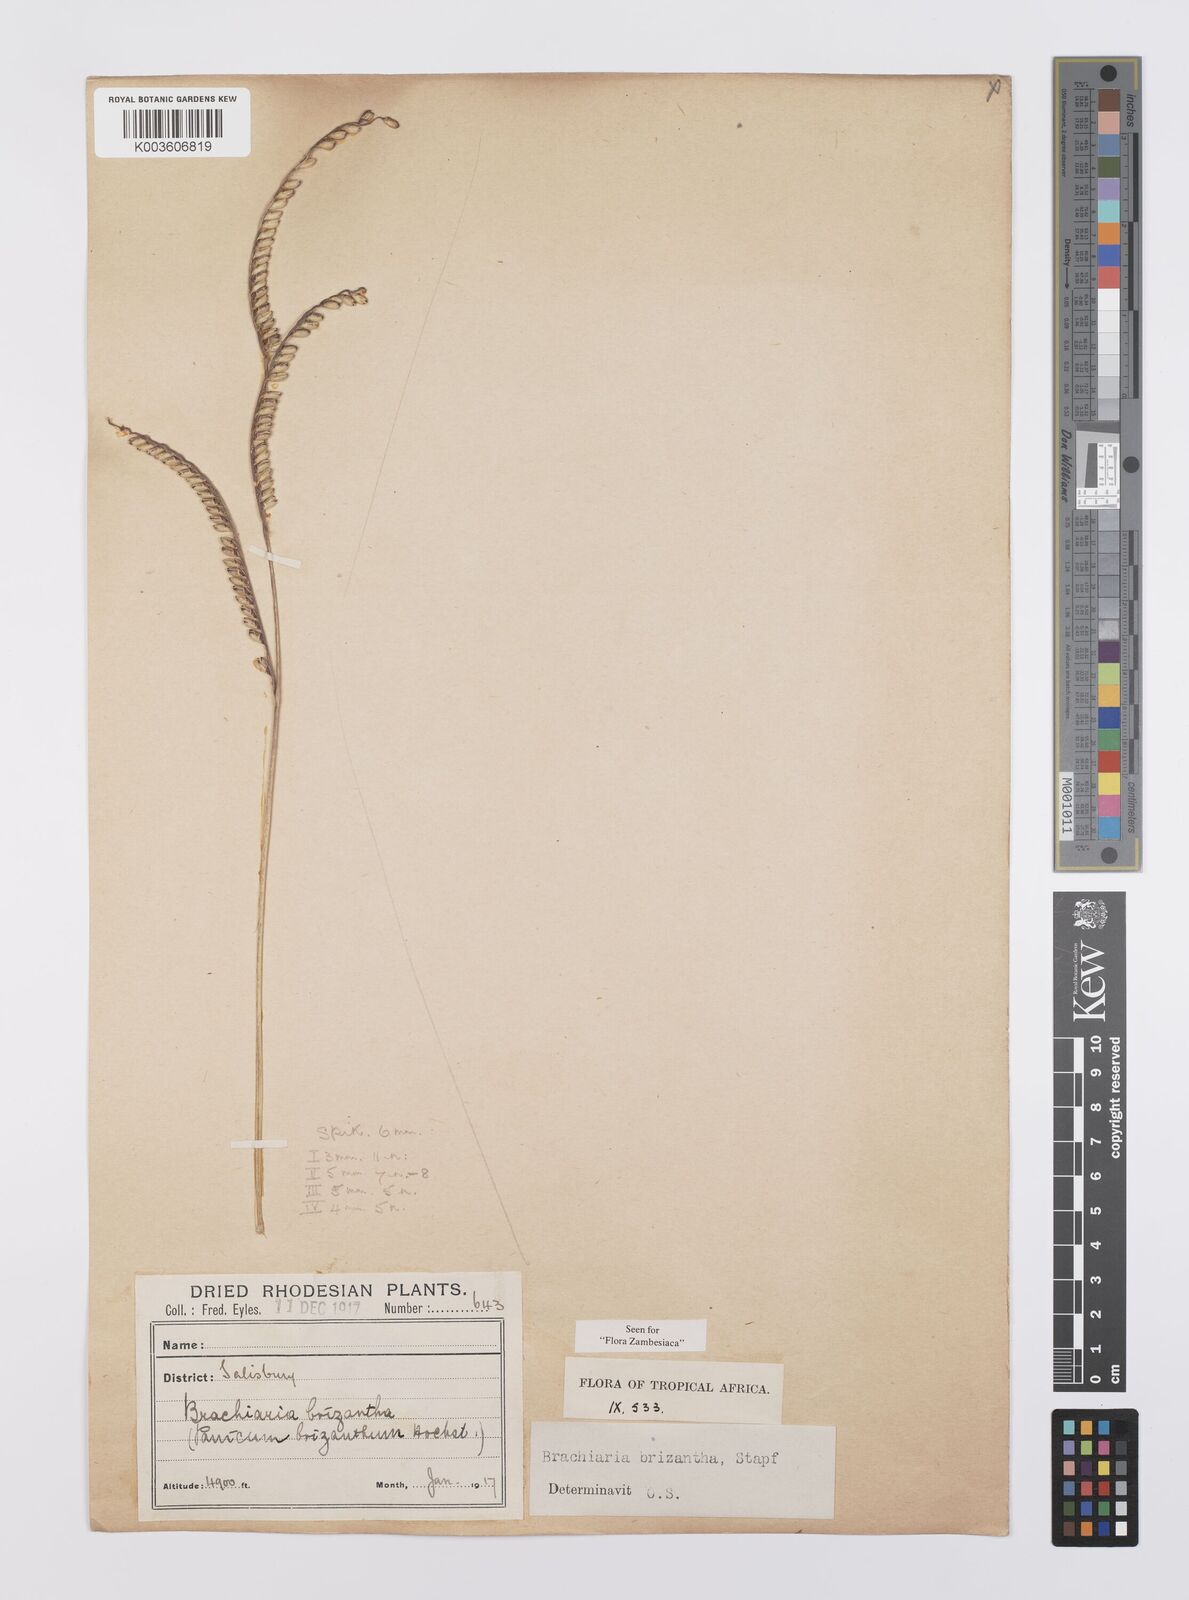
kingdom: Plantae
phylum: Tracheophyta
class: Liliopsida
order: Poales
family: Poaceae
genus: Urochloa
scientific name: Urochloa brizantha
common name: Palisade signalgrass
